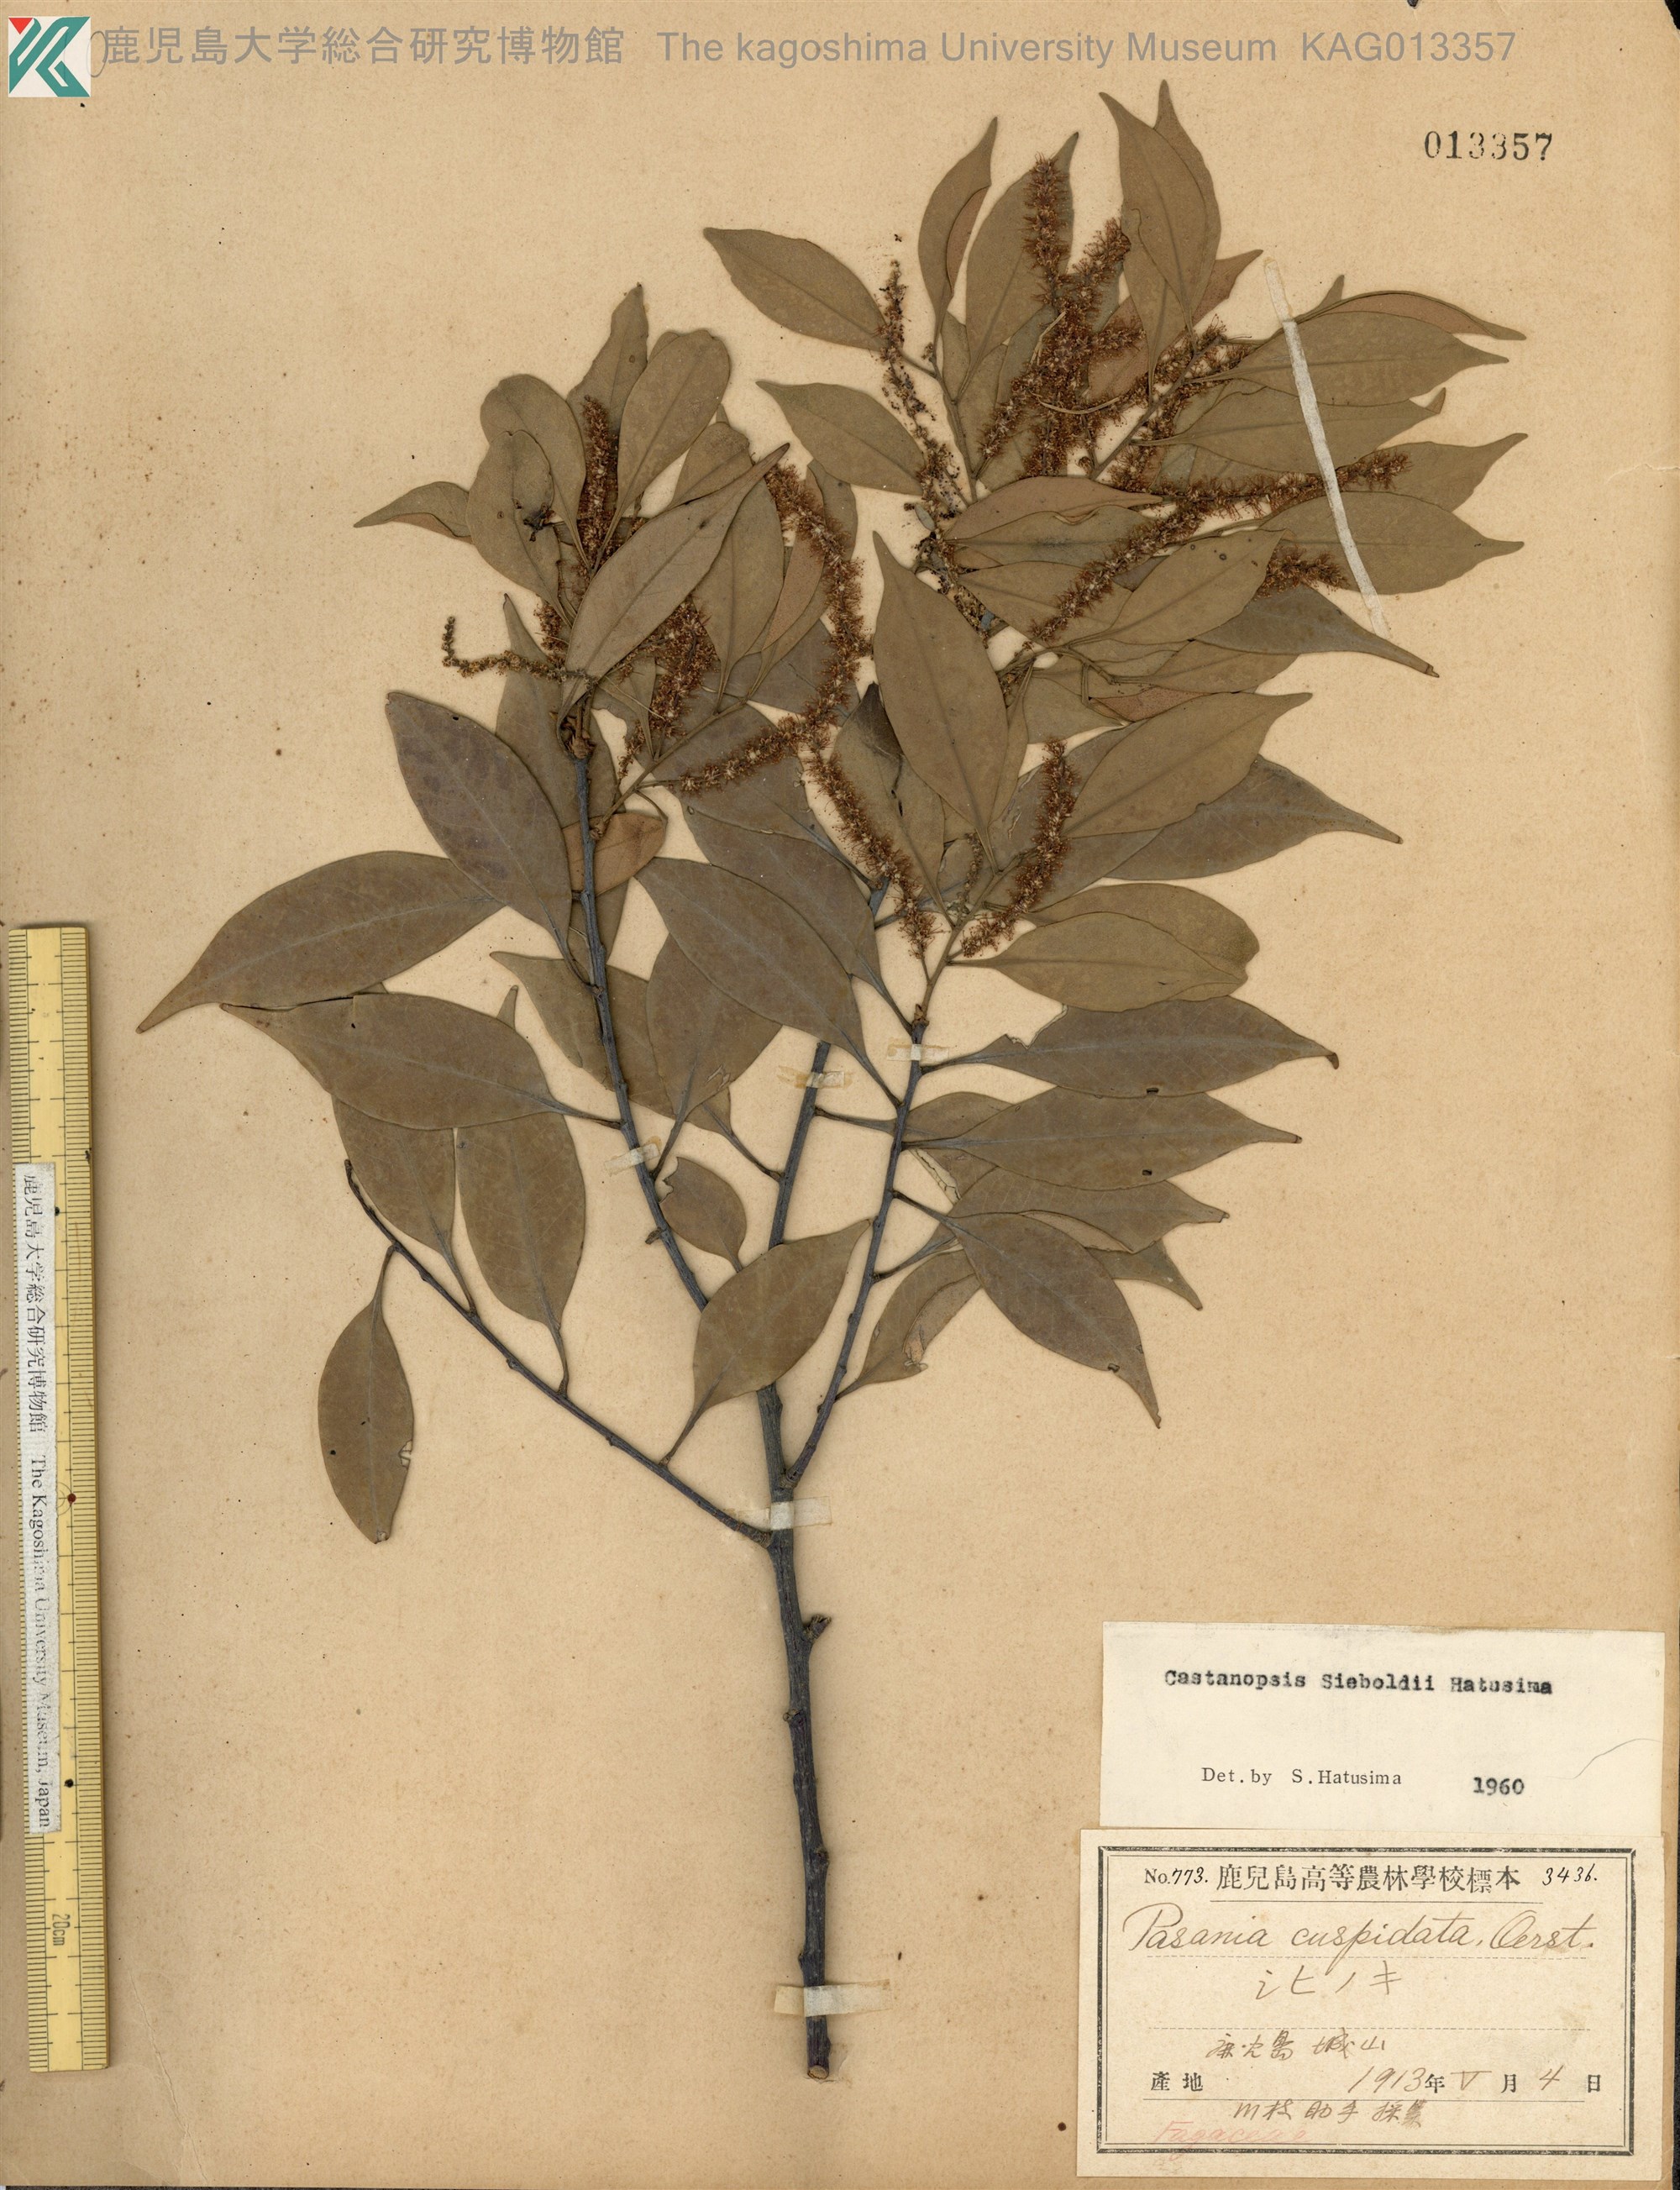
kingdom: Plantae
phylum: Tracheophyta
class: Magnoliopsida
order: Fagales
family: Fagaceae
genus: Castanopsis
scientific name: Castanopsis sieboldii
